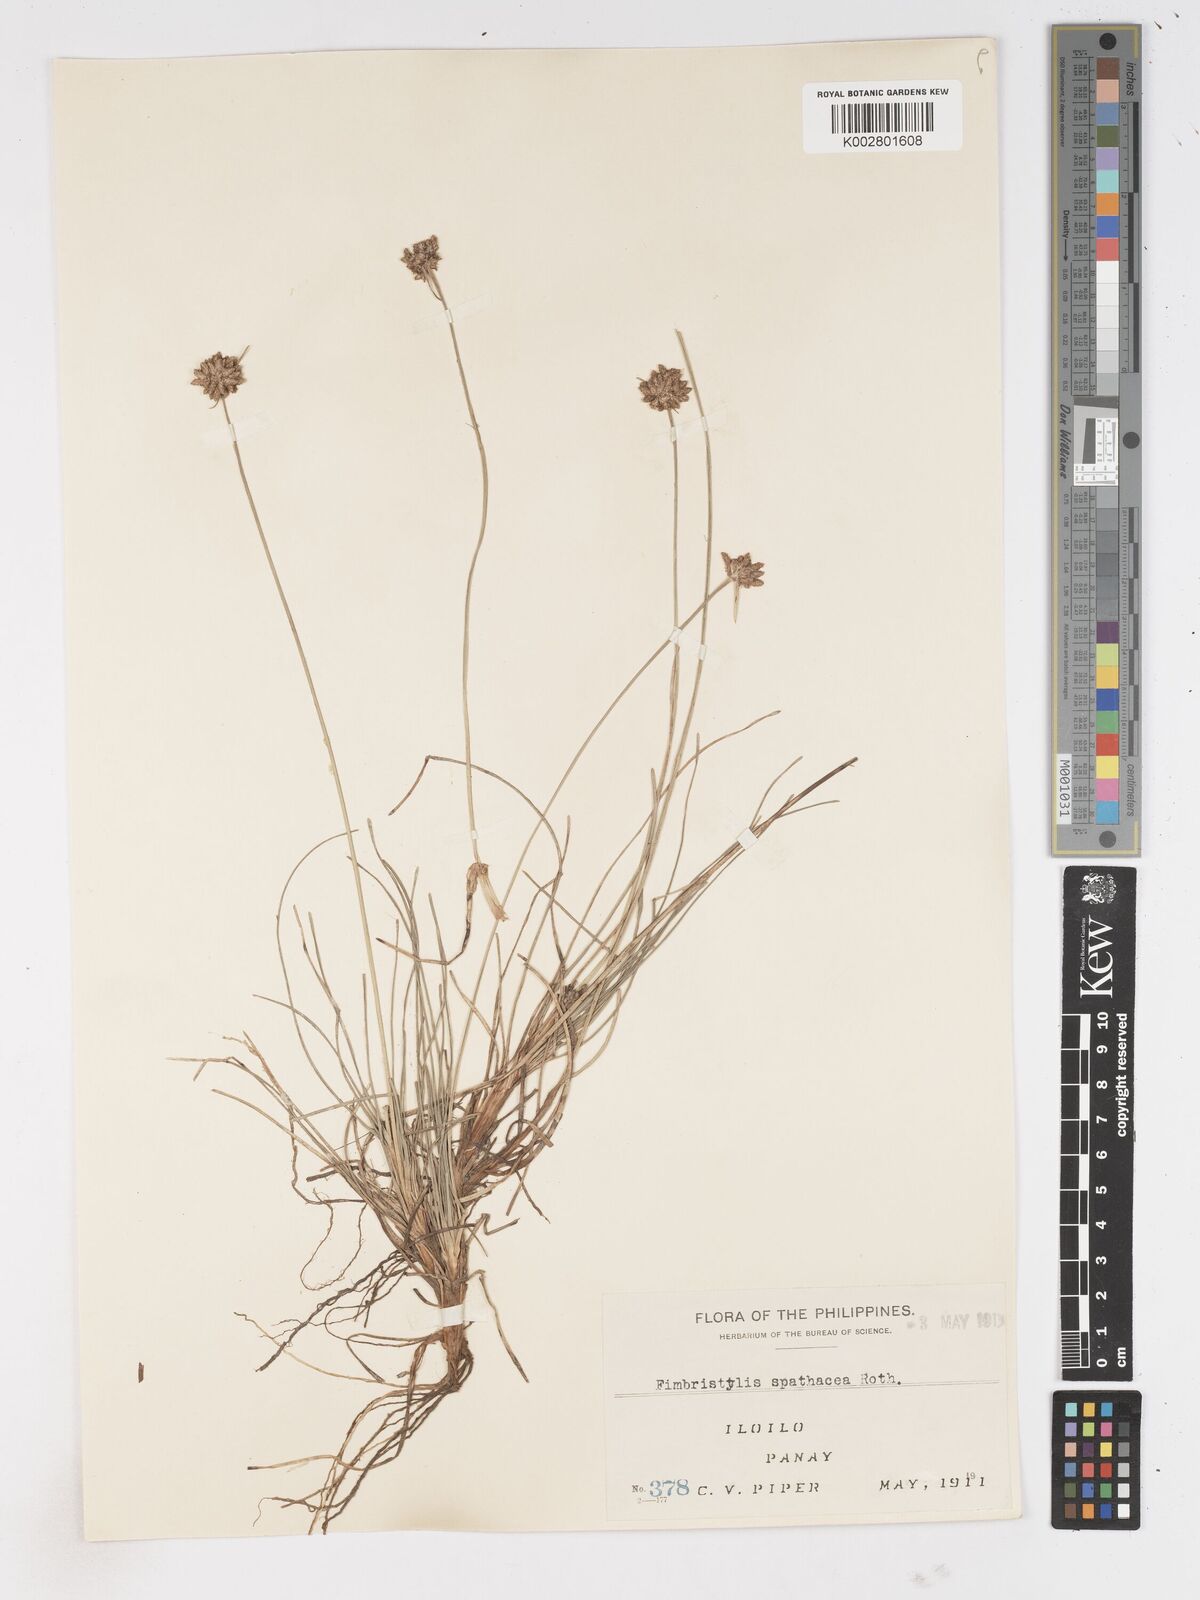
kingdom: Plantae
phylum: Tracheophyta
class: Liliopsida
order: Poales
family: Cyperaceae
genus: Fimbristylis
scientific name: Fimbristylis cymosa
